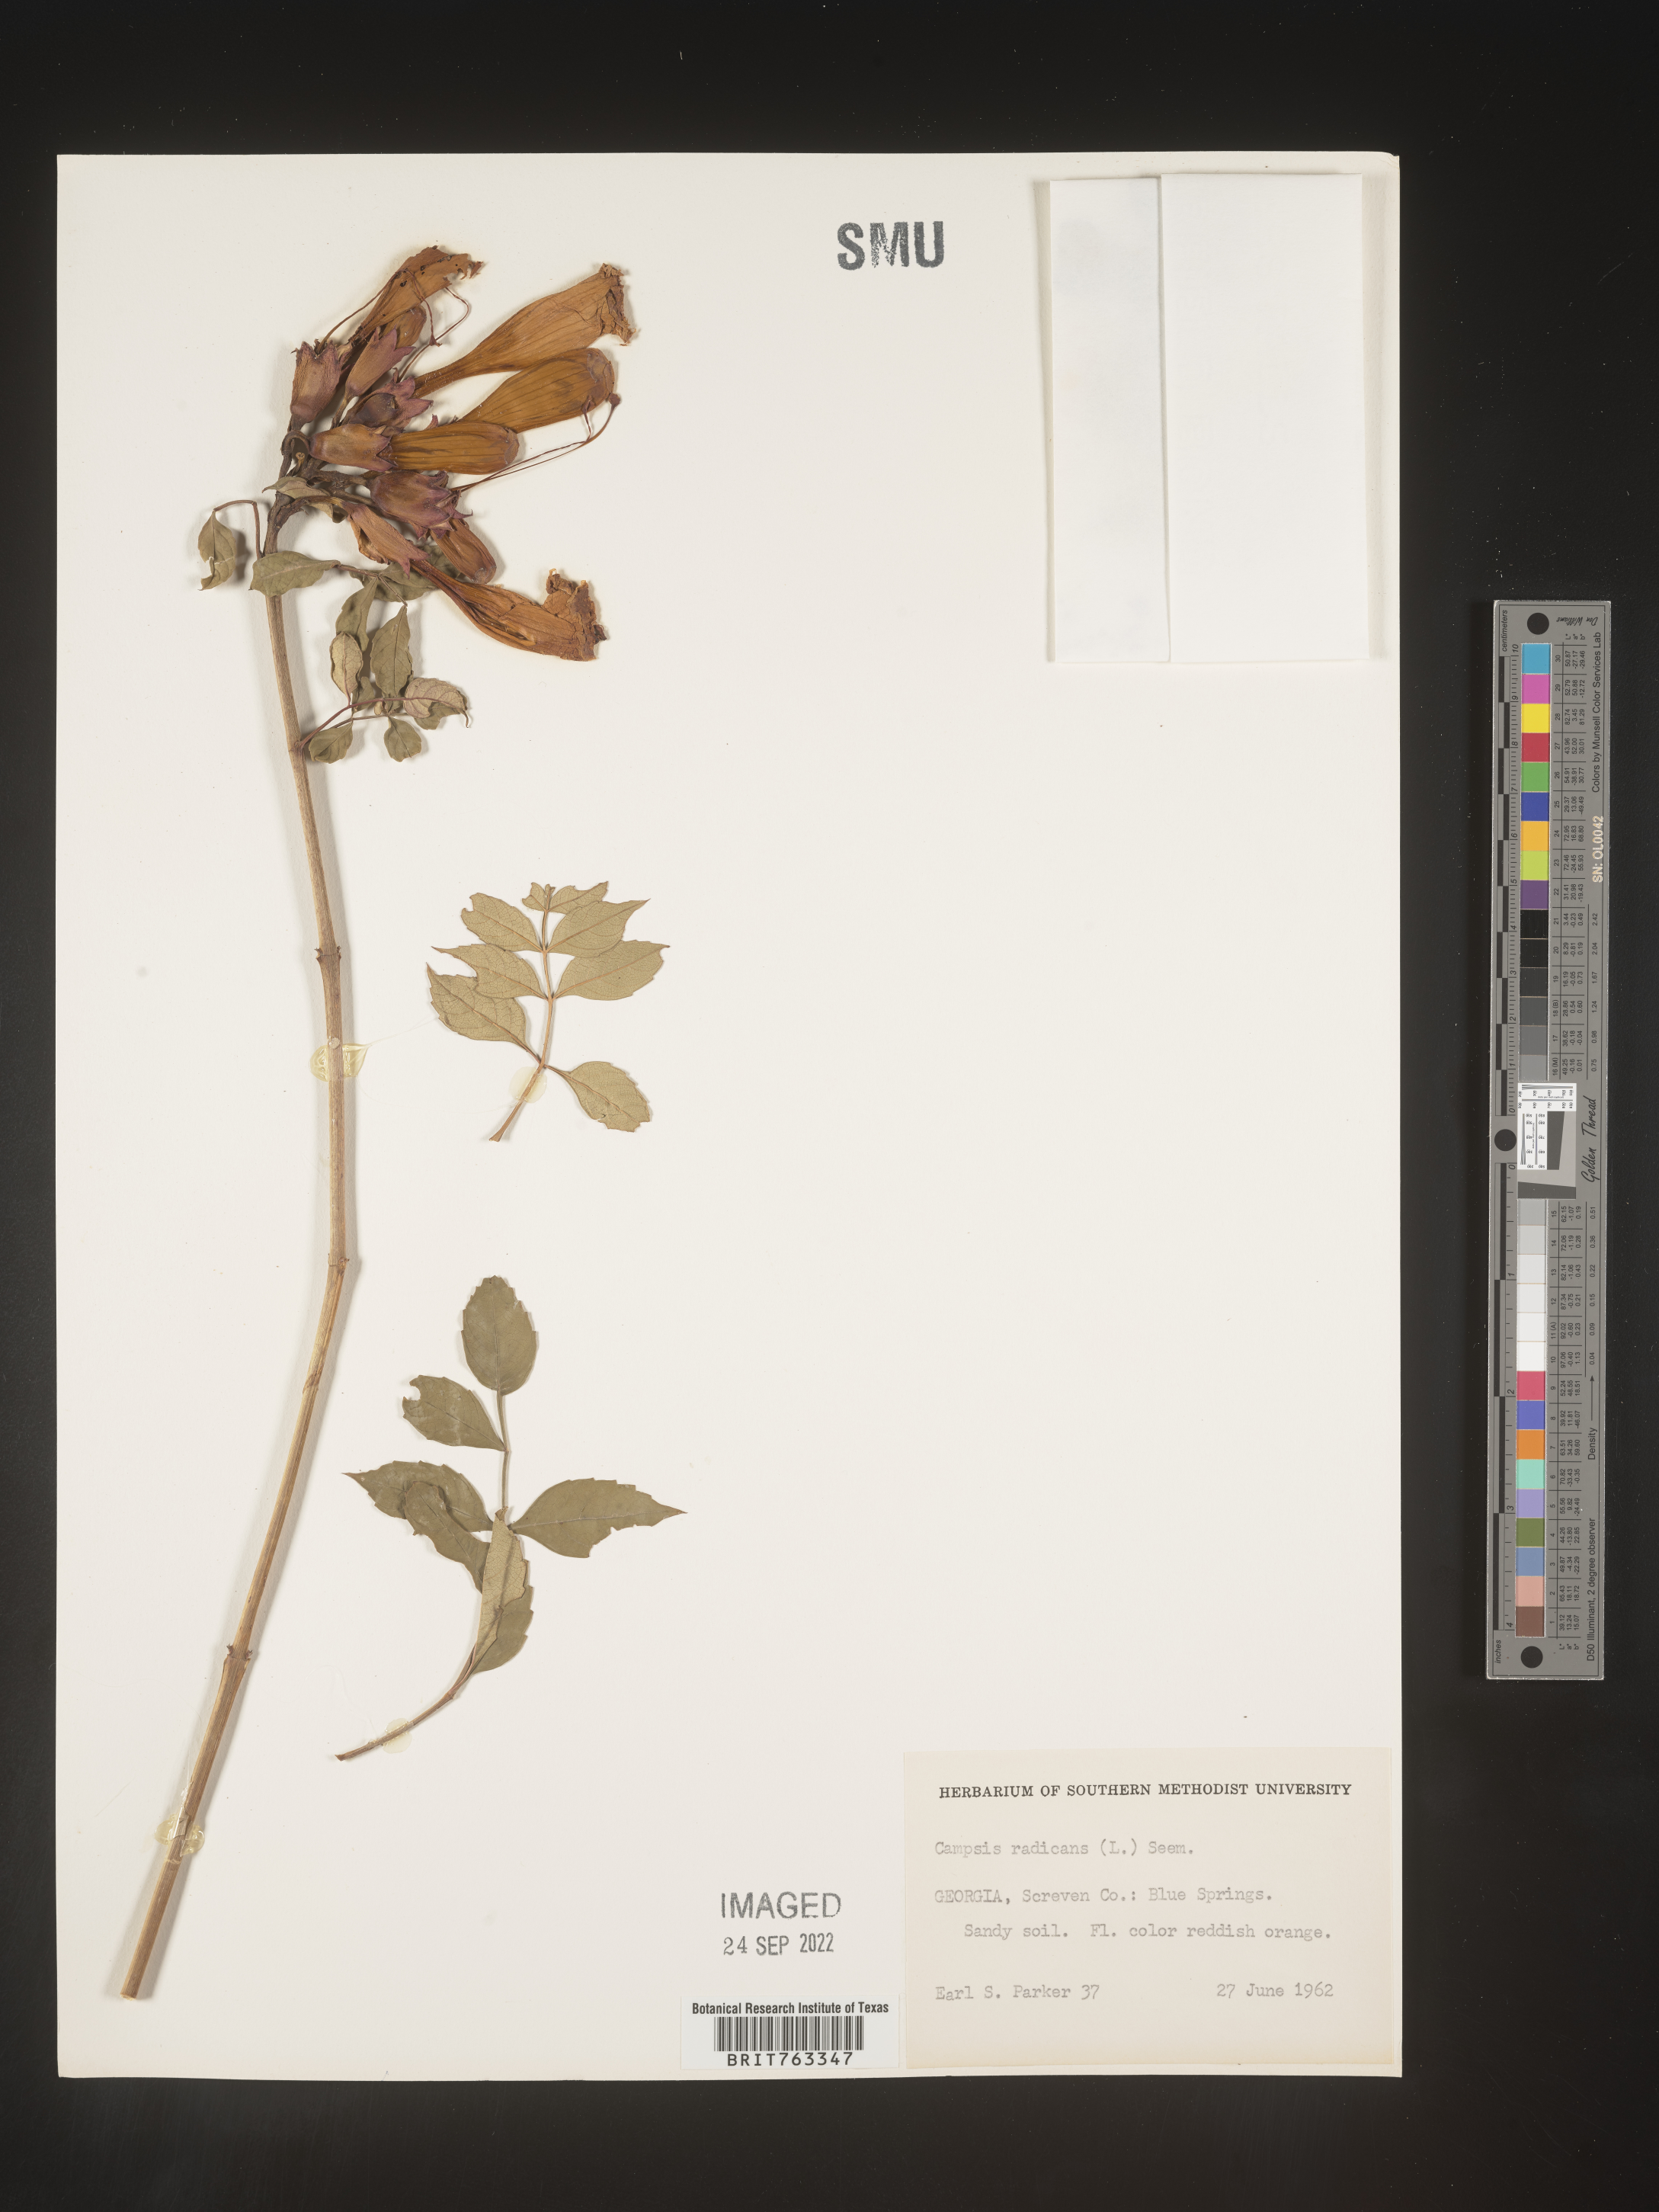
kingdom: Plantae
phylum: Tracheophyta
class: Magnoliopsida
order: Lamiales
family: Bignoniaceae
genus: Campsis
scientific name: Campsis radicans
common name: Trumpet-creeper
